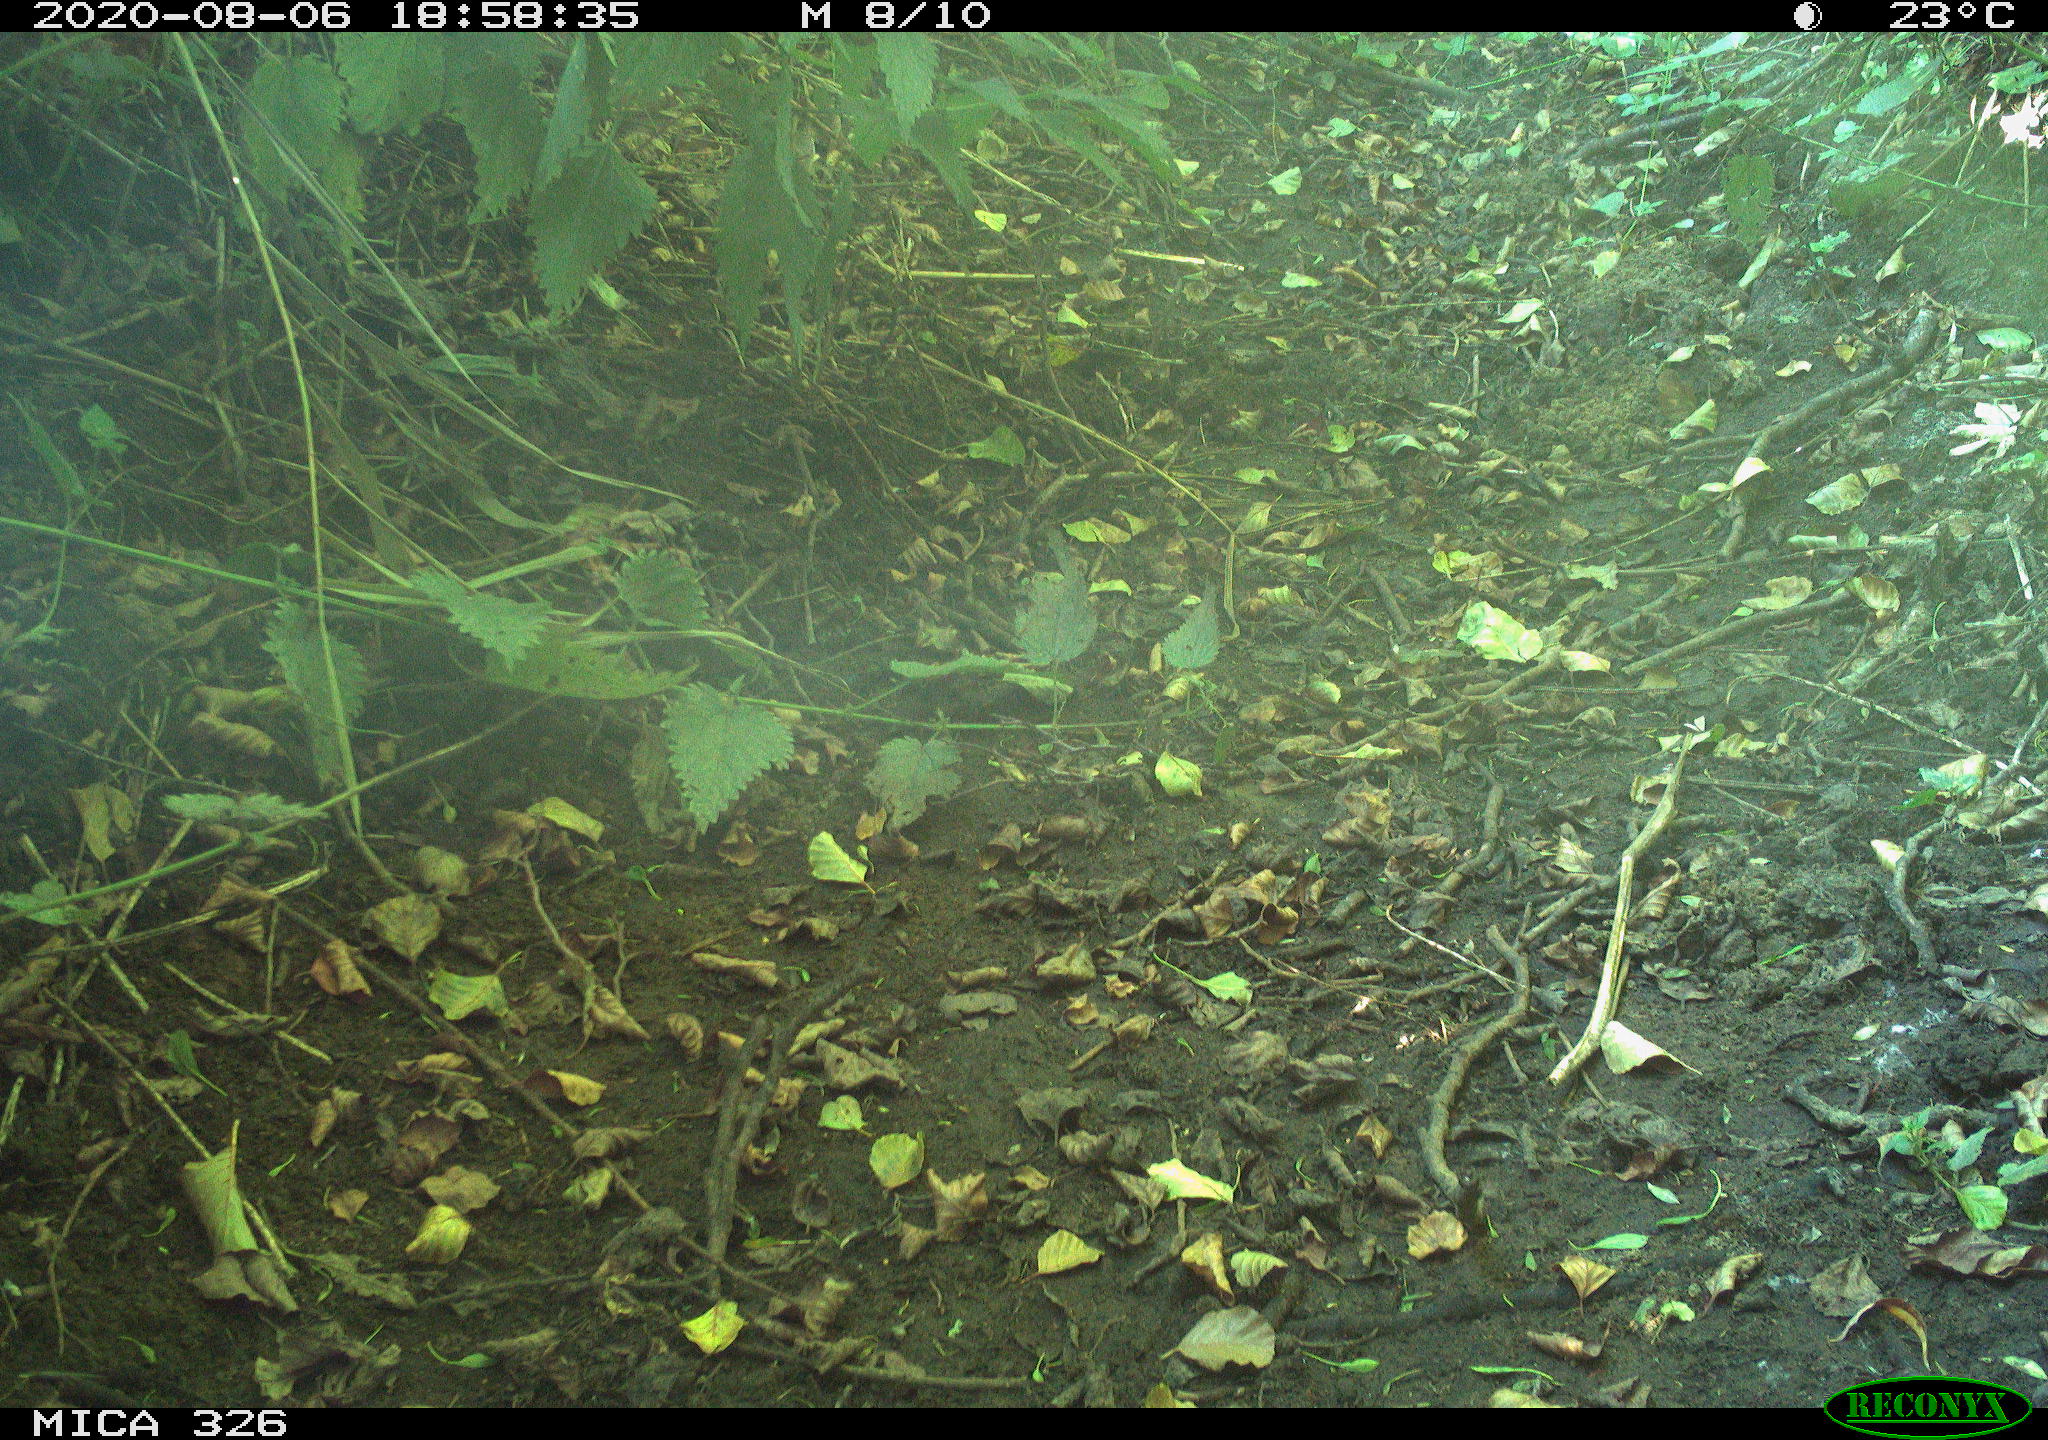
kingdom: Animalia
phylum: Chordata
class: Aves
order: Passeriformes
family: Muscicapidae
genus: Erithacus
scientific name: Erithacus rubecula
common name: European robin
